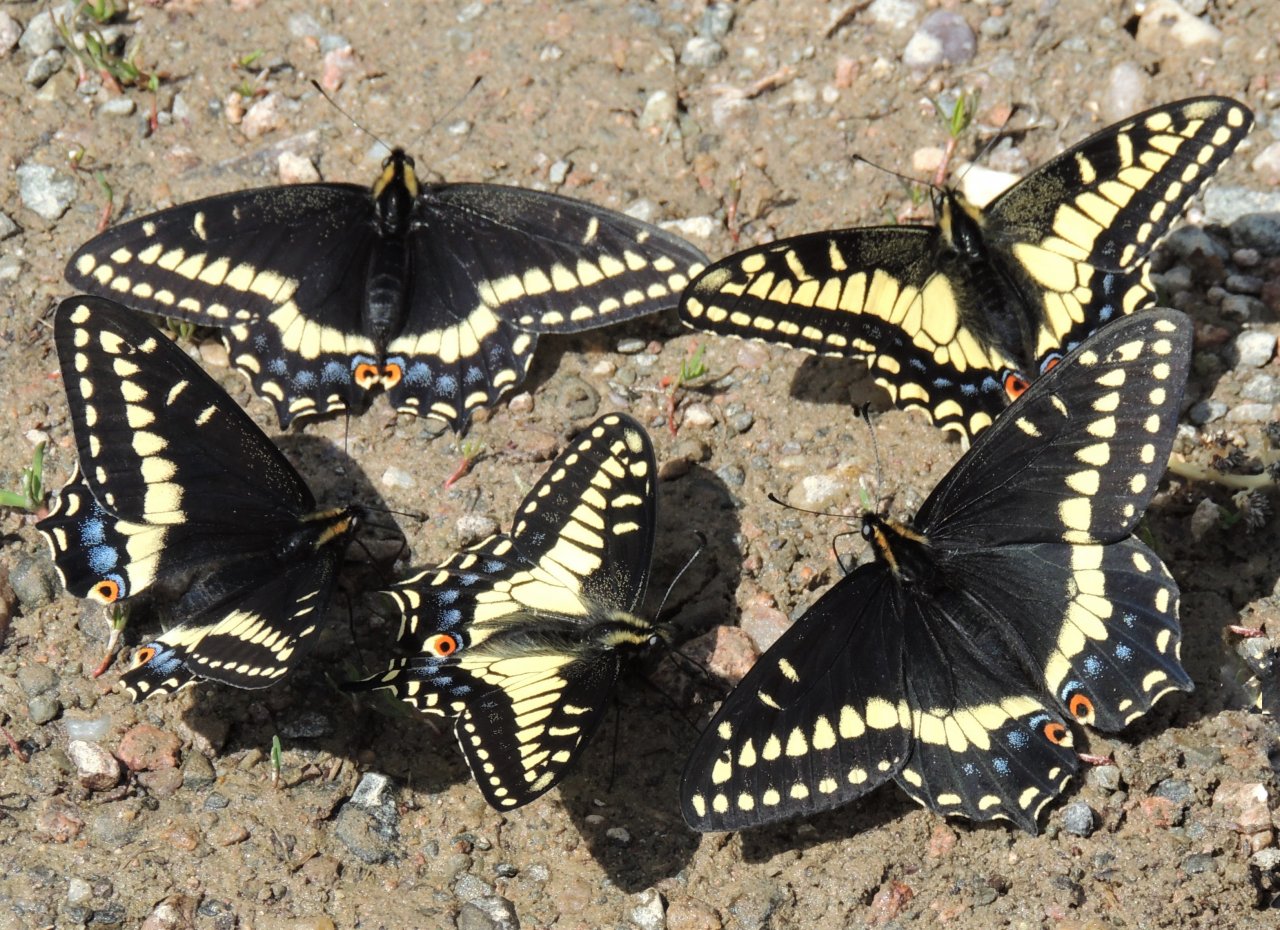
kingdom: Animalia
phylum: Arthropoda
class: Insecta
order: Lepidoptera
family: Papilionidae
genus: Papilio
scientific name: Papilio indra
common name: Indra Swallowtail
